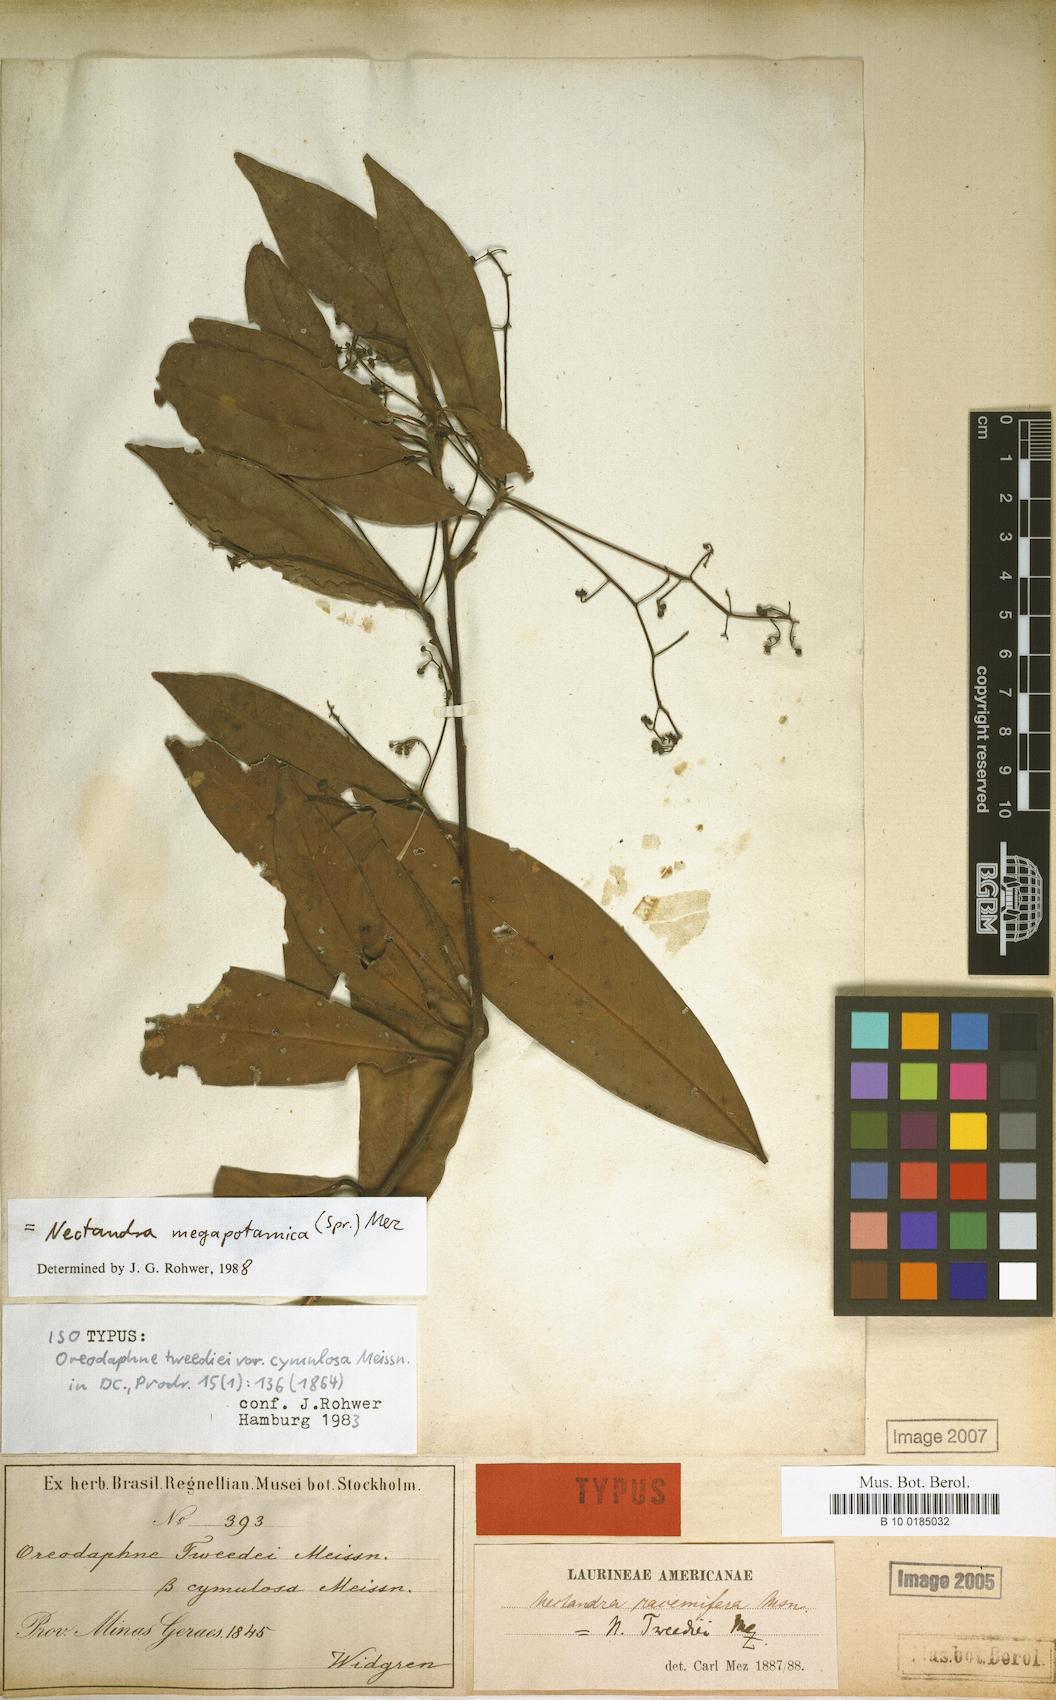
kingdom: Plantae
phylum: Tracheophyta
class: Magnoliopsida
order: Laurales
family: Lauraceae
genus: Nectandra
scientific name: Nectandra megapotamica
